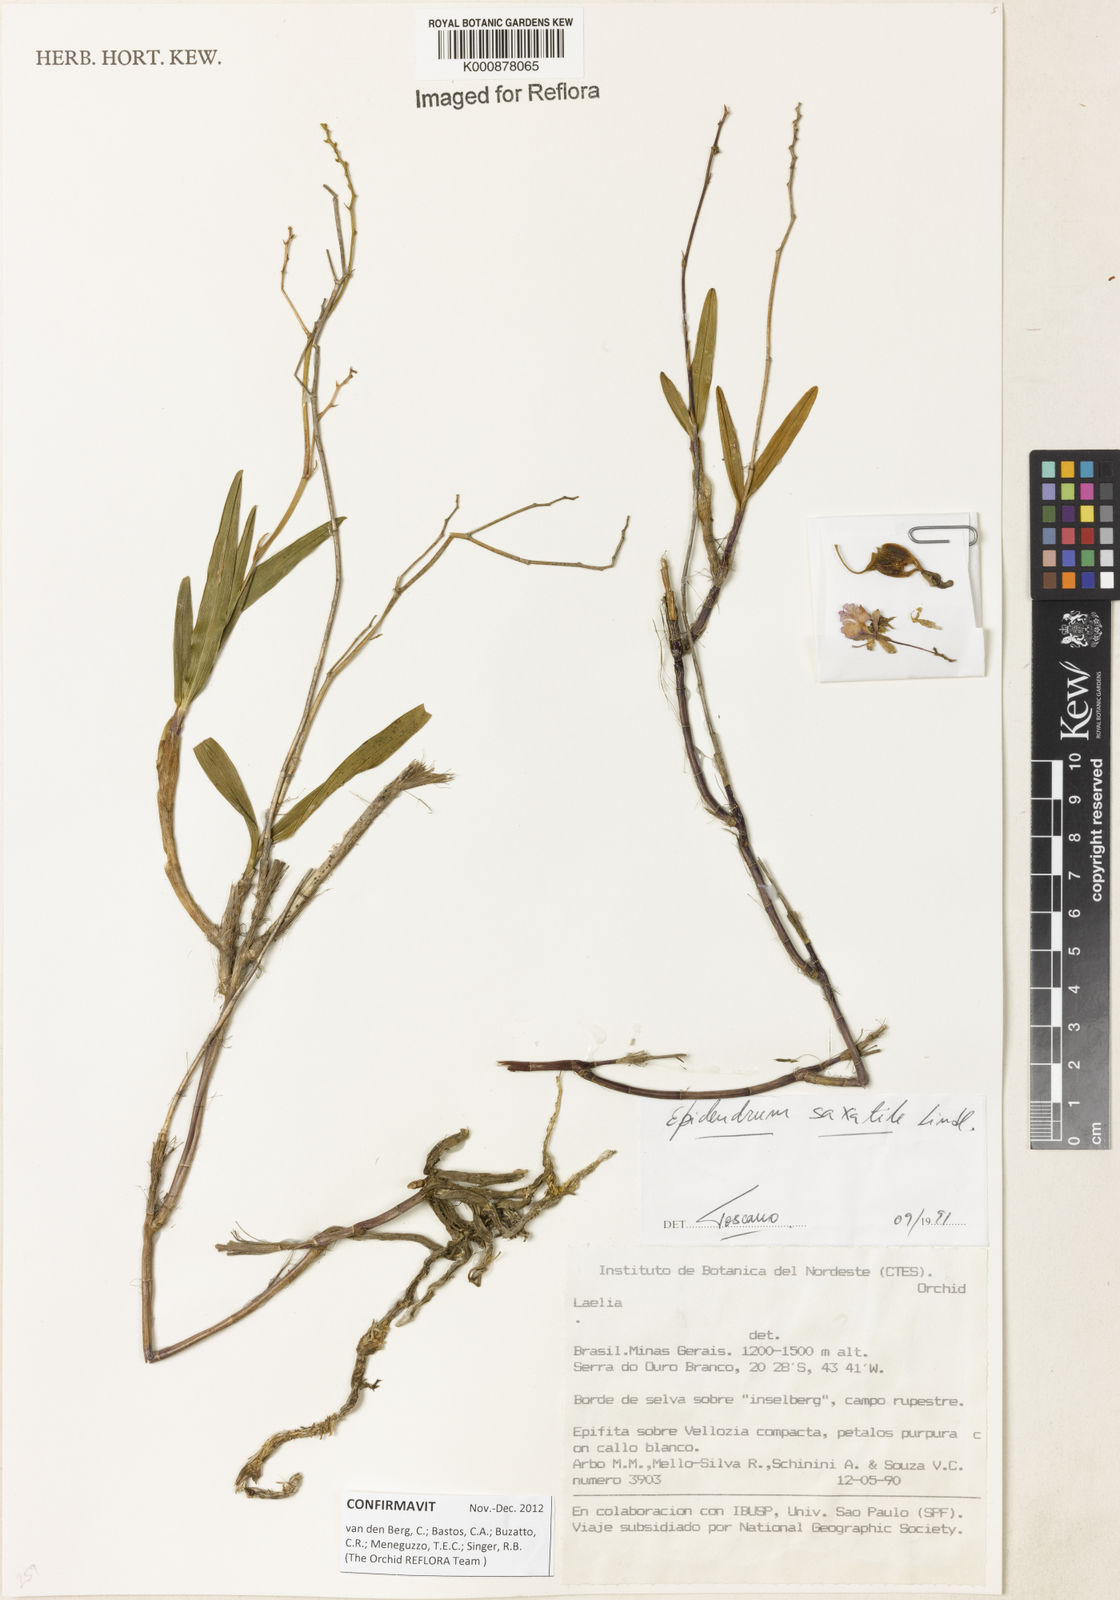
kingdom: Plantae
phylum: Tracheophyta
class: Liliopsida
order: Asparagales
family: Orchidaceae
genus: Epidendrum
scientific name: Epidendrum saxatile
